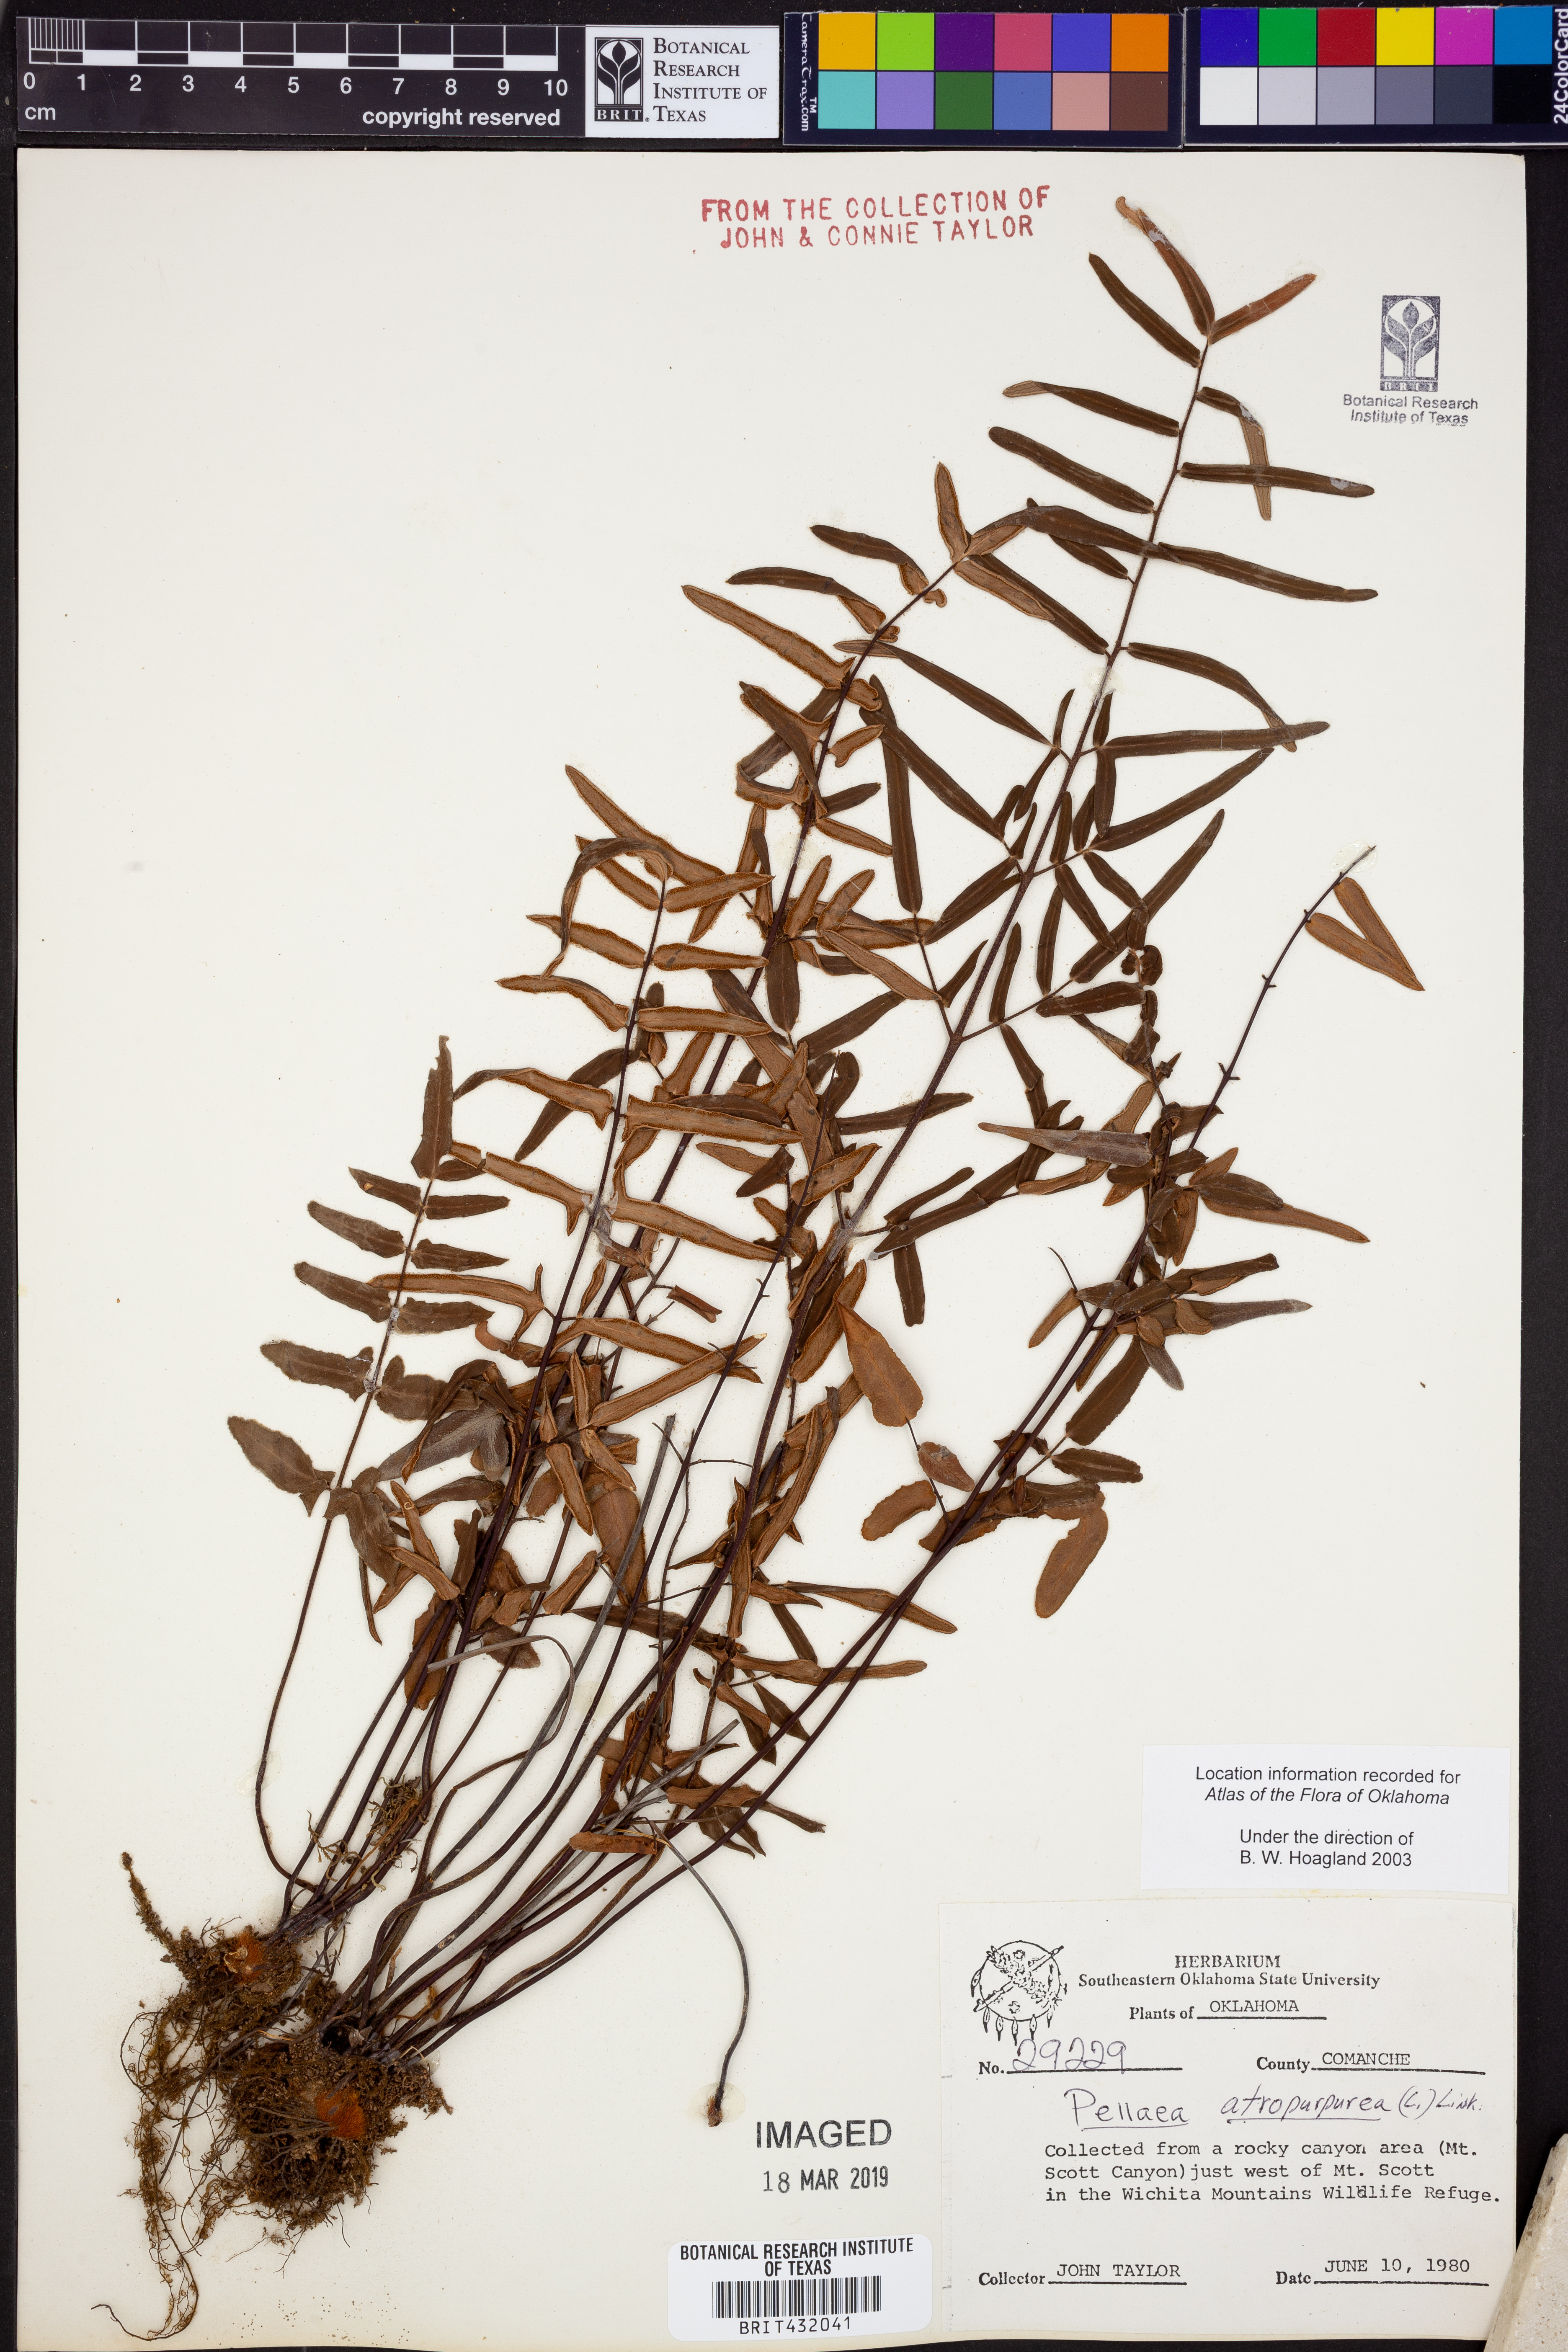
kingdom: Plantae
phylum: Tracheophyta
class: Polypodiopsida
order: Polypodiales
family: Pteridaceae
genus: Pellaea
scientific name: Pellaea atropurpurea
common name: Hairy cliffbrake
